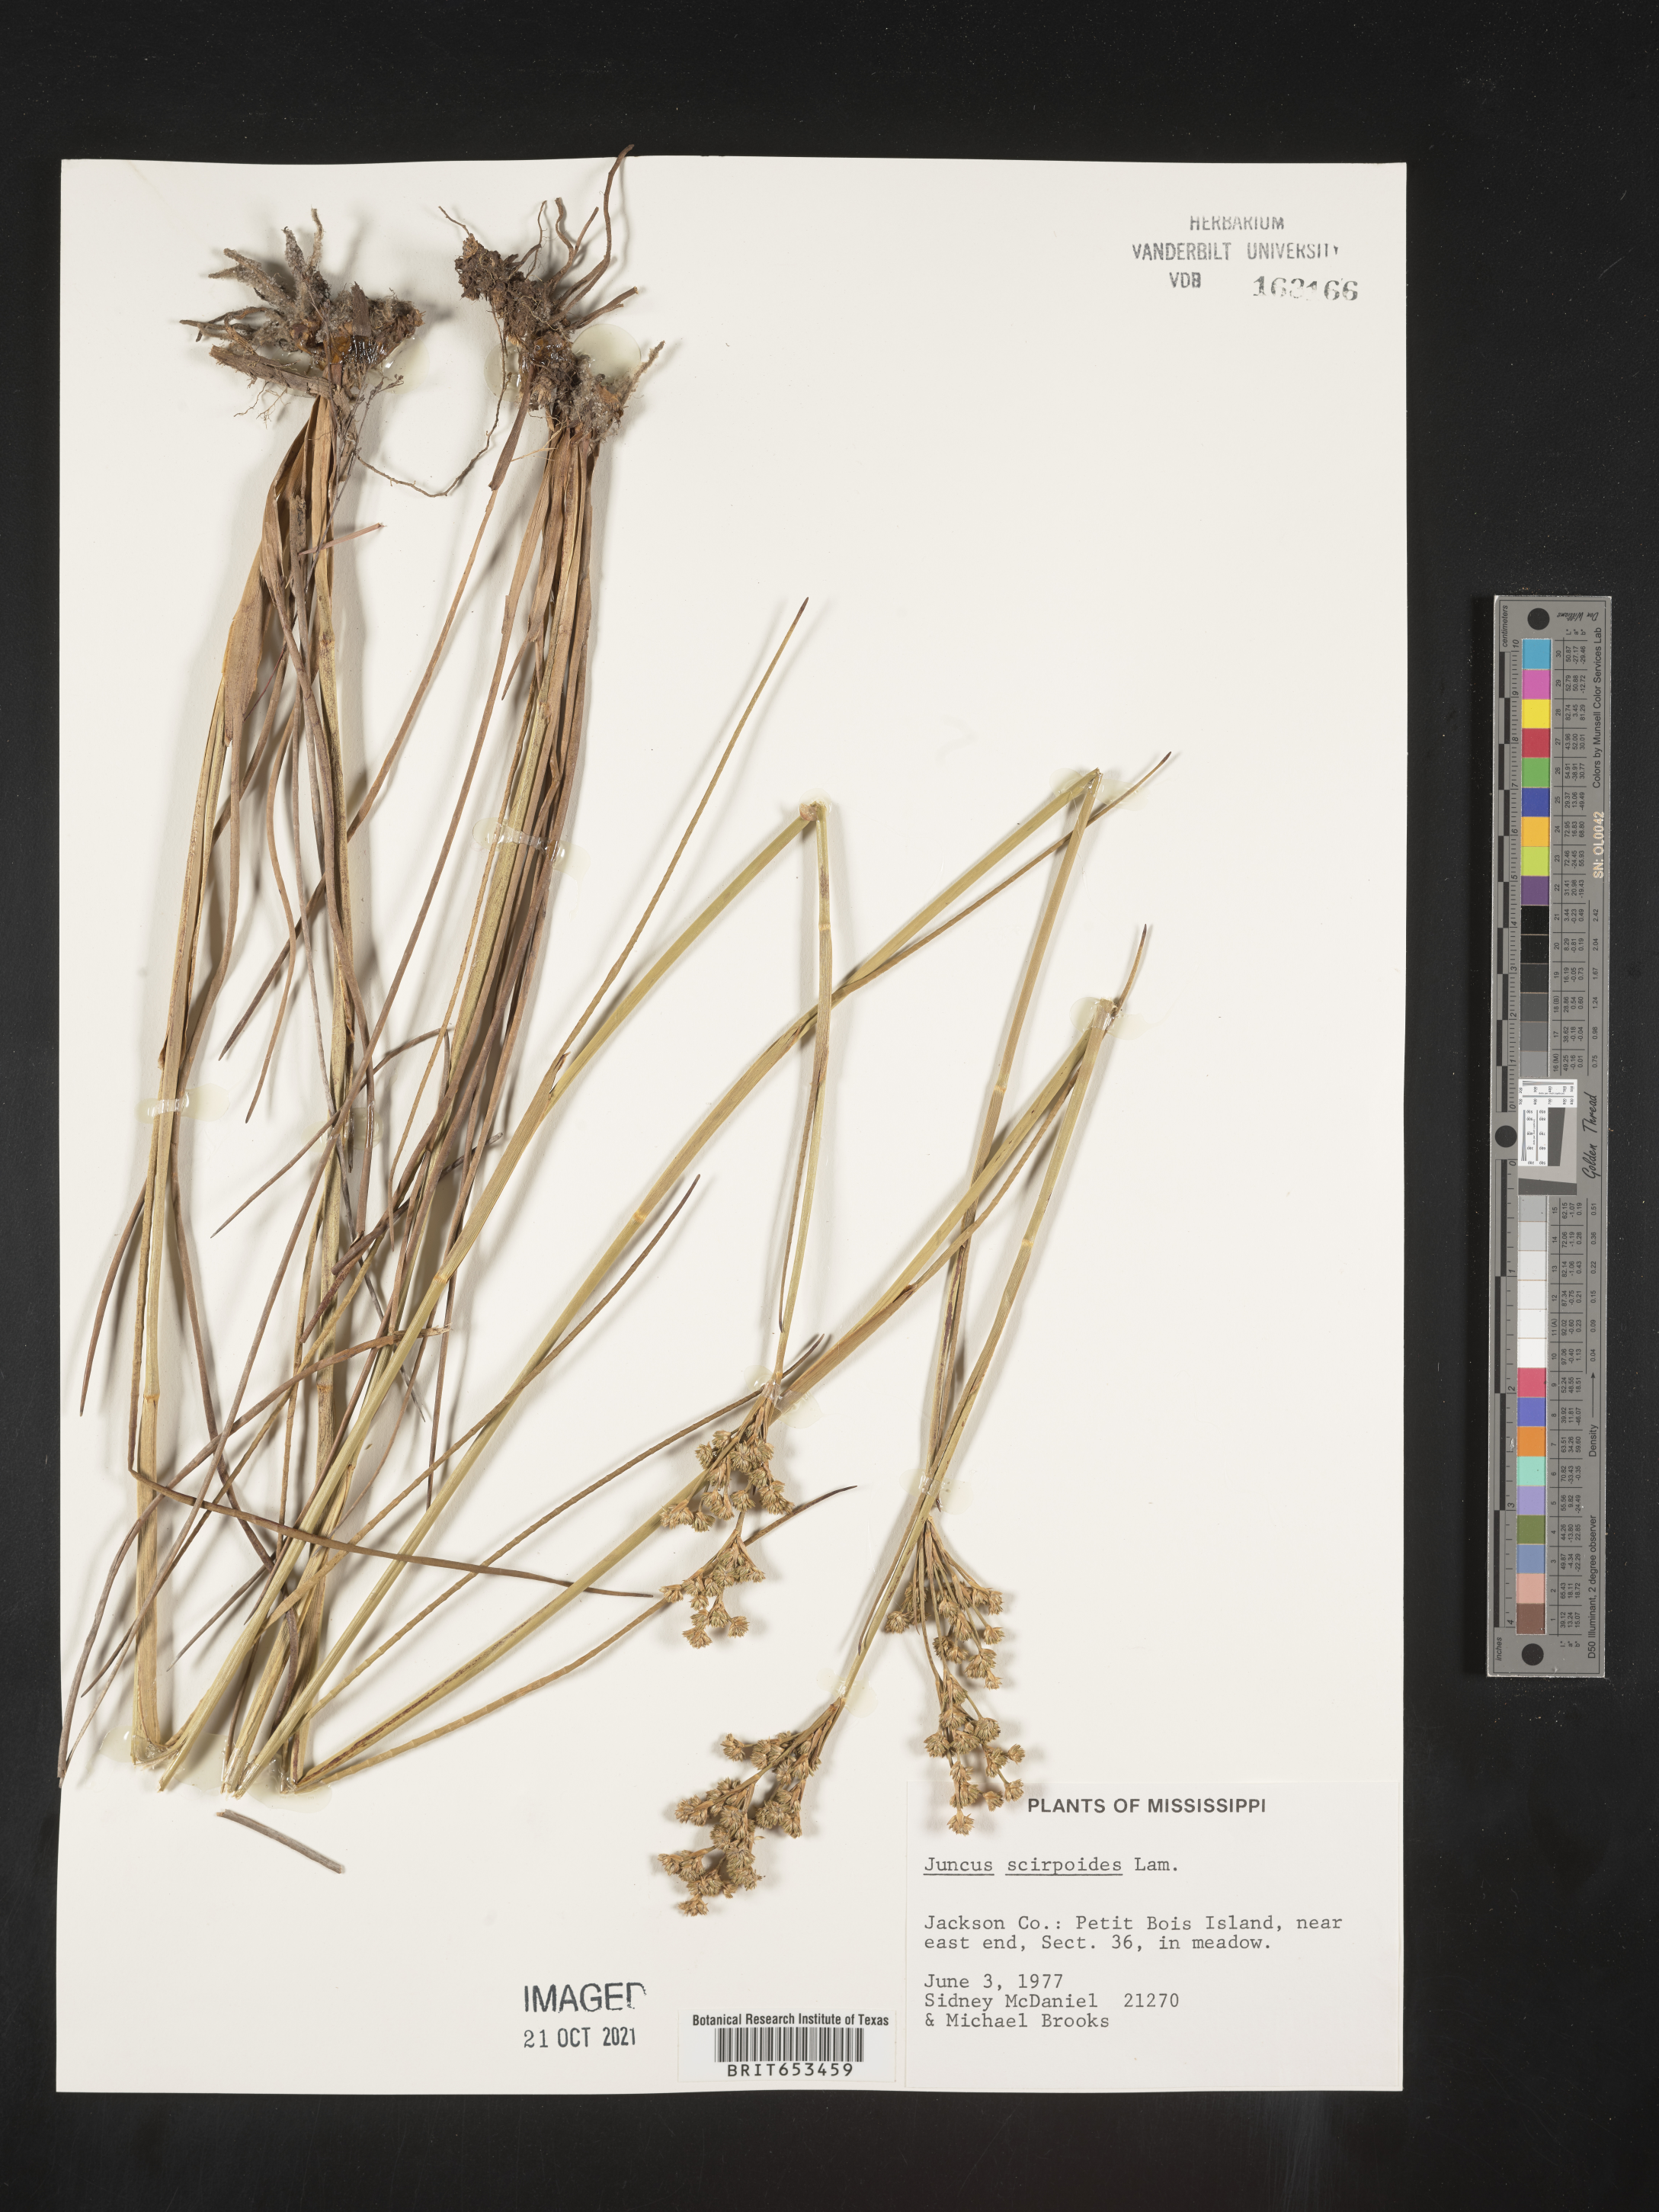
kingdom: Plantae
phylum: Tracheophyta
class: Liliopsida
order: Poales
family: Juncaceae
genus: Juncus
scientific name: Juncus scirpoides
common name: Needlepod rush
